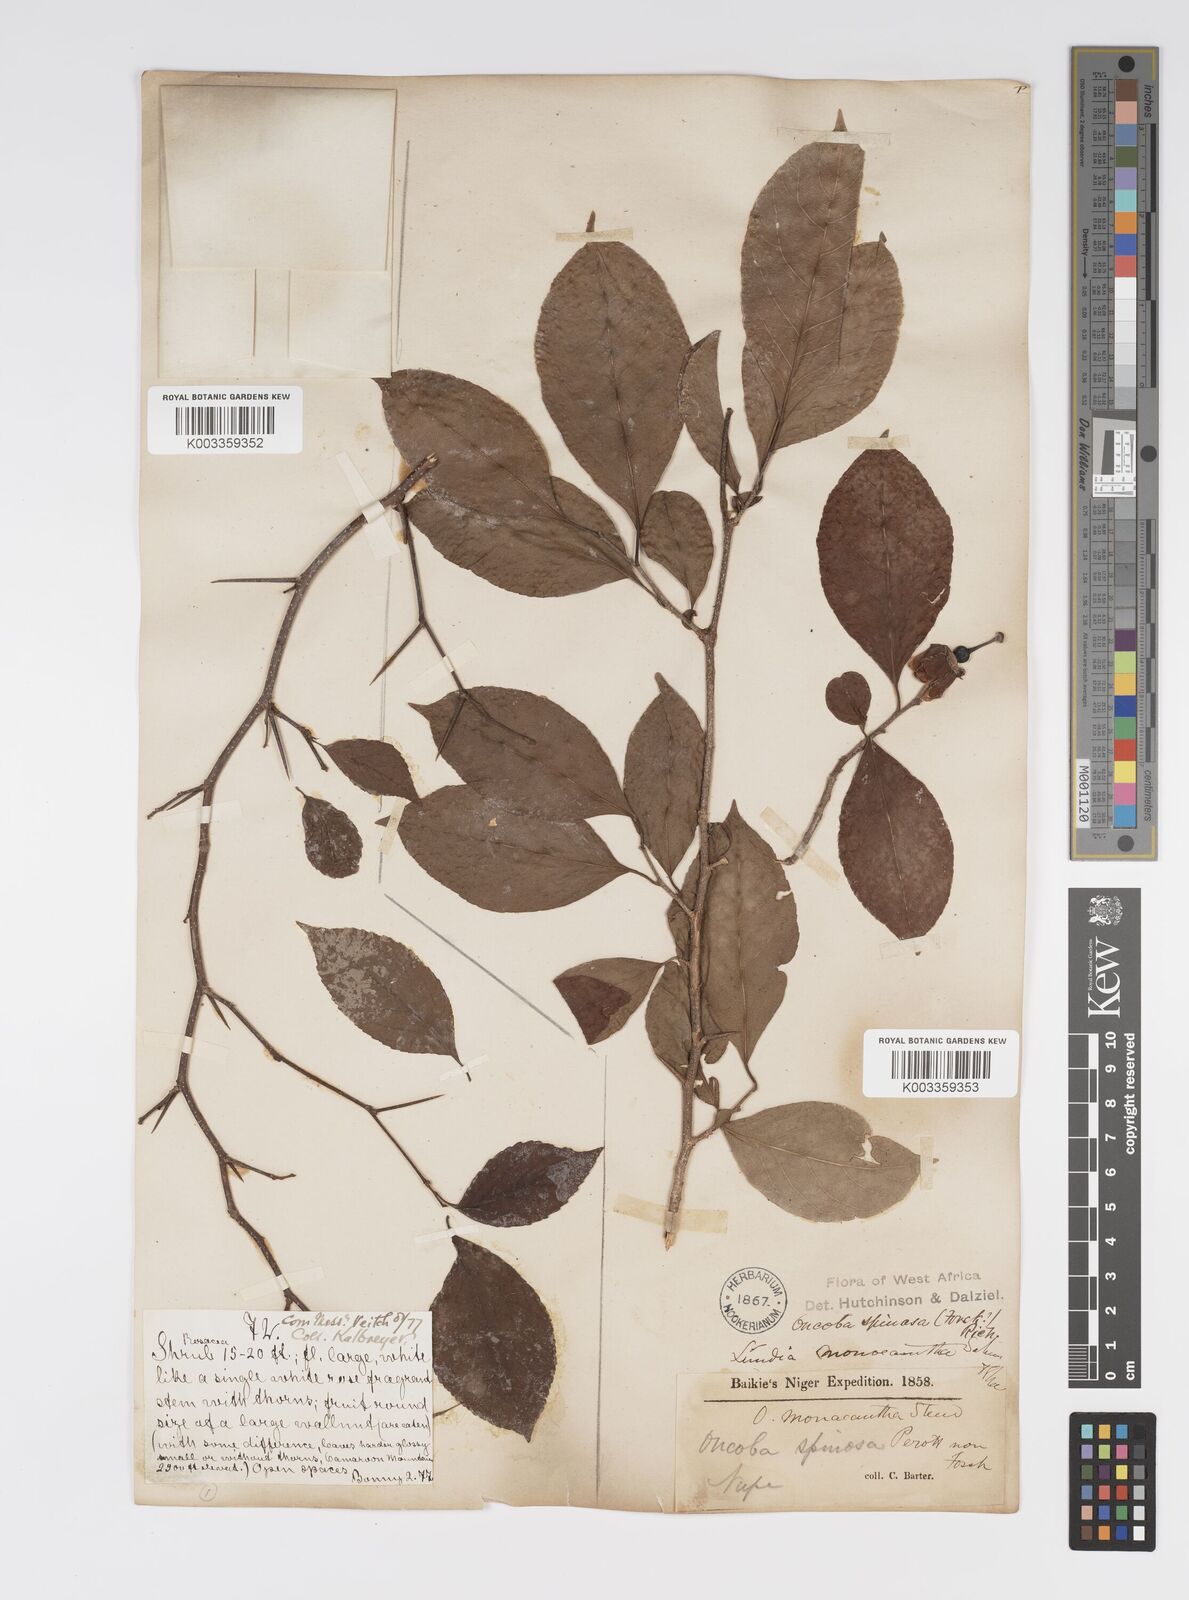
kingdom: Plantae
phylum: Tracheophyta
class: Magnoliopsida
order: Malpighiales
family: Salicaceae
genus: Oncoba
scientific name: Oncoba spinosa
